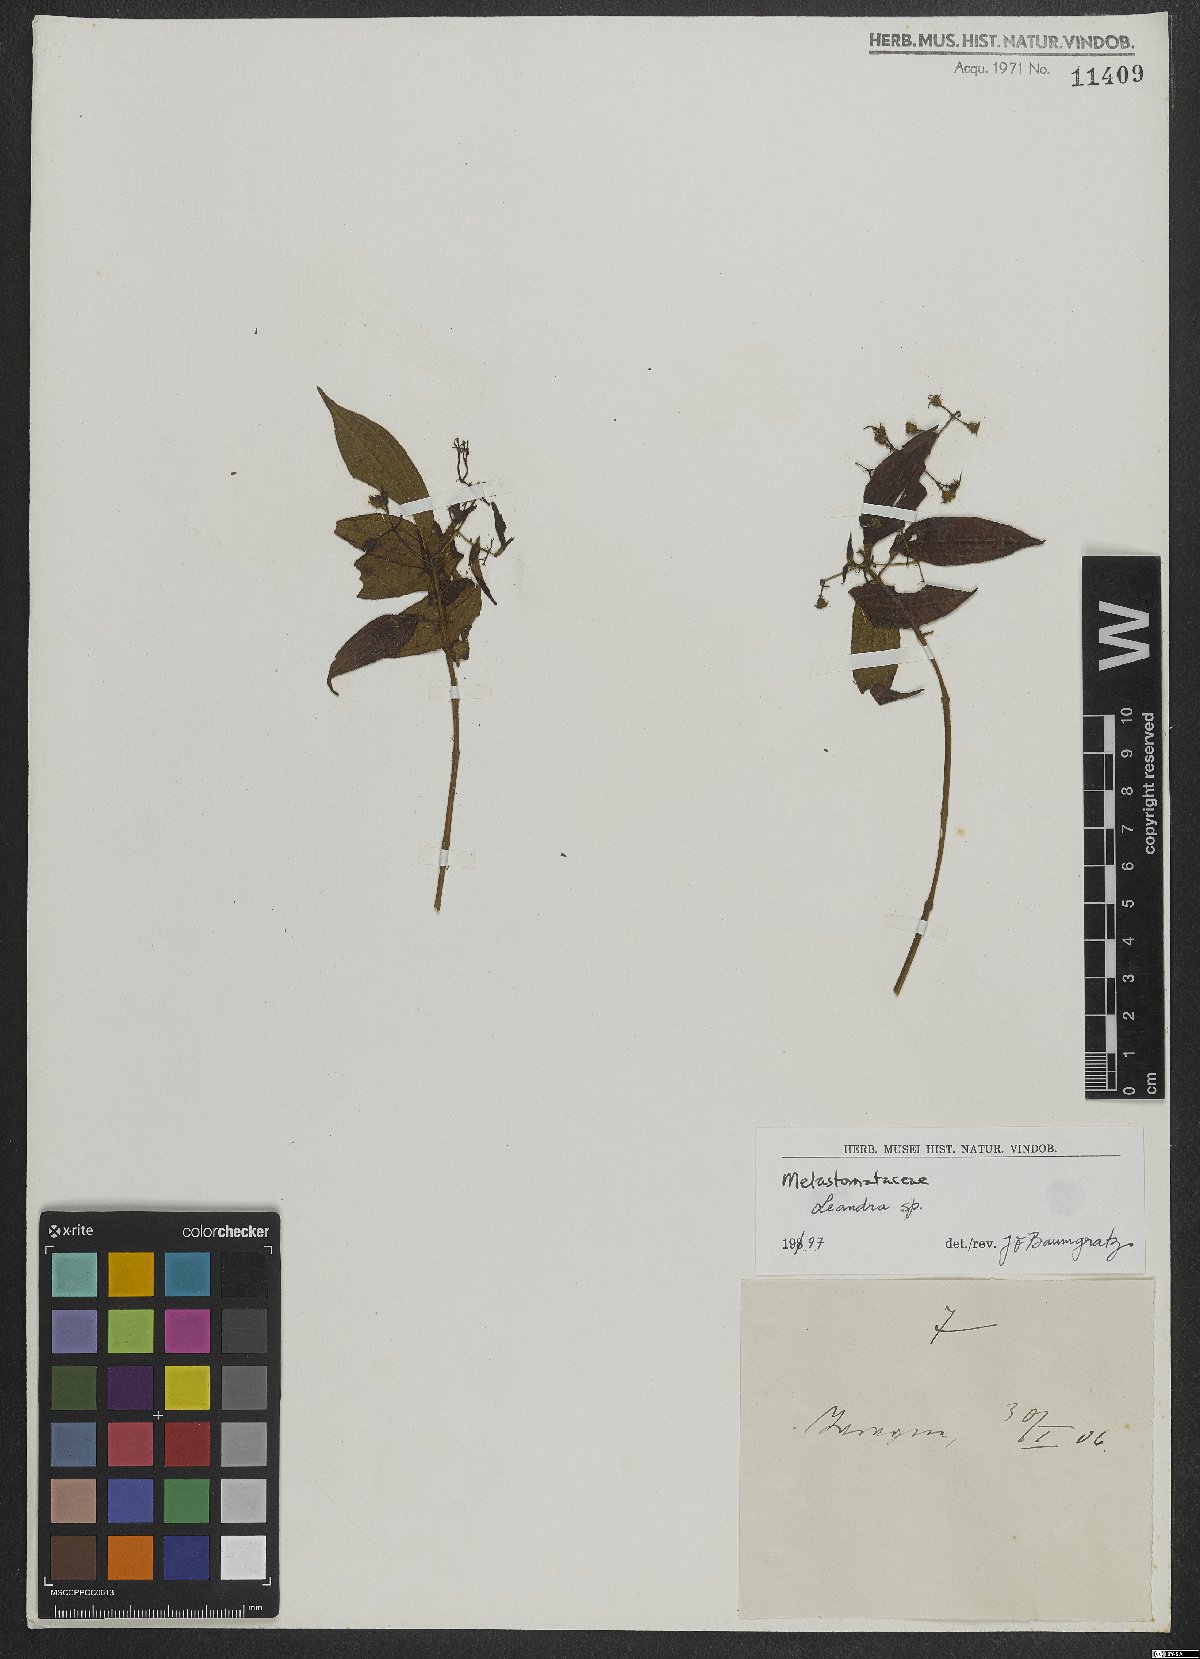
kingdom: Plantae
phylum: Tracheophyta
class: Magnoliopsida
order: Myrtales
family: Melastomataceae
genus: Miconia
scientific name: Miconia
